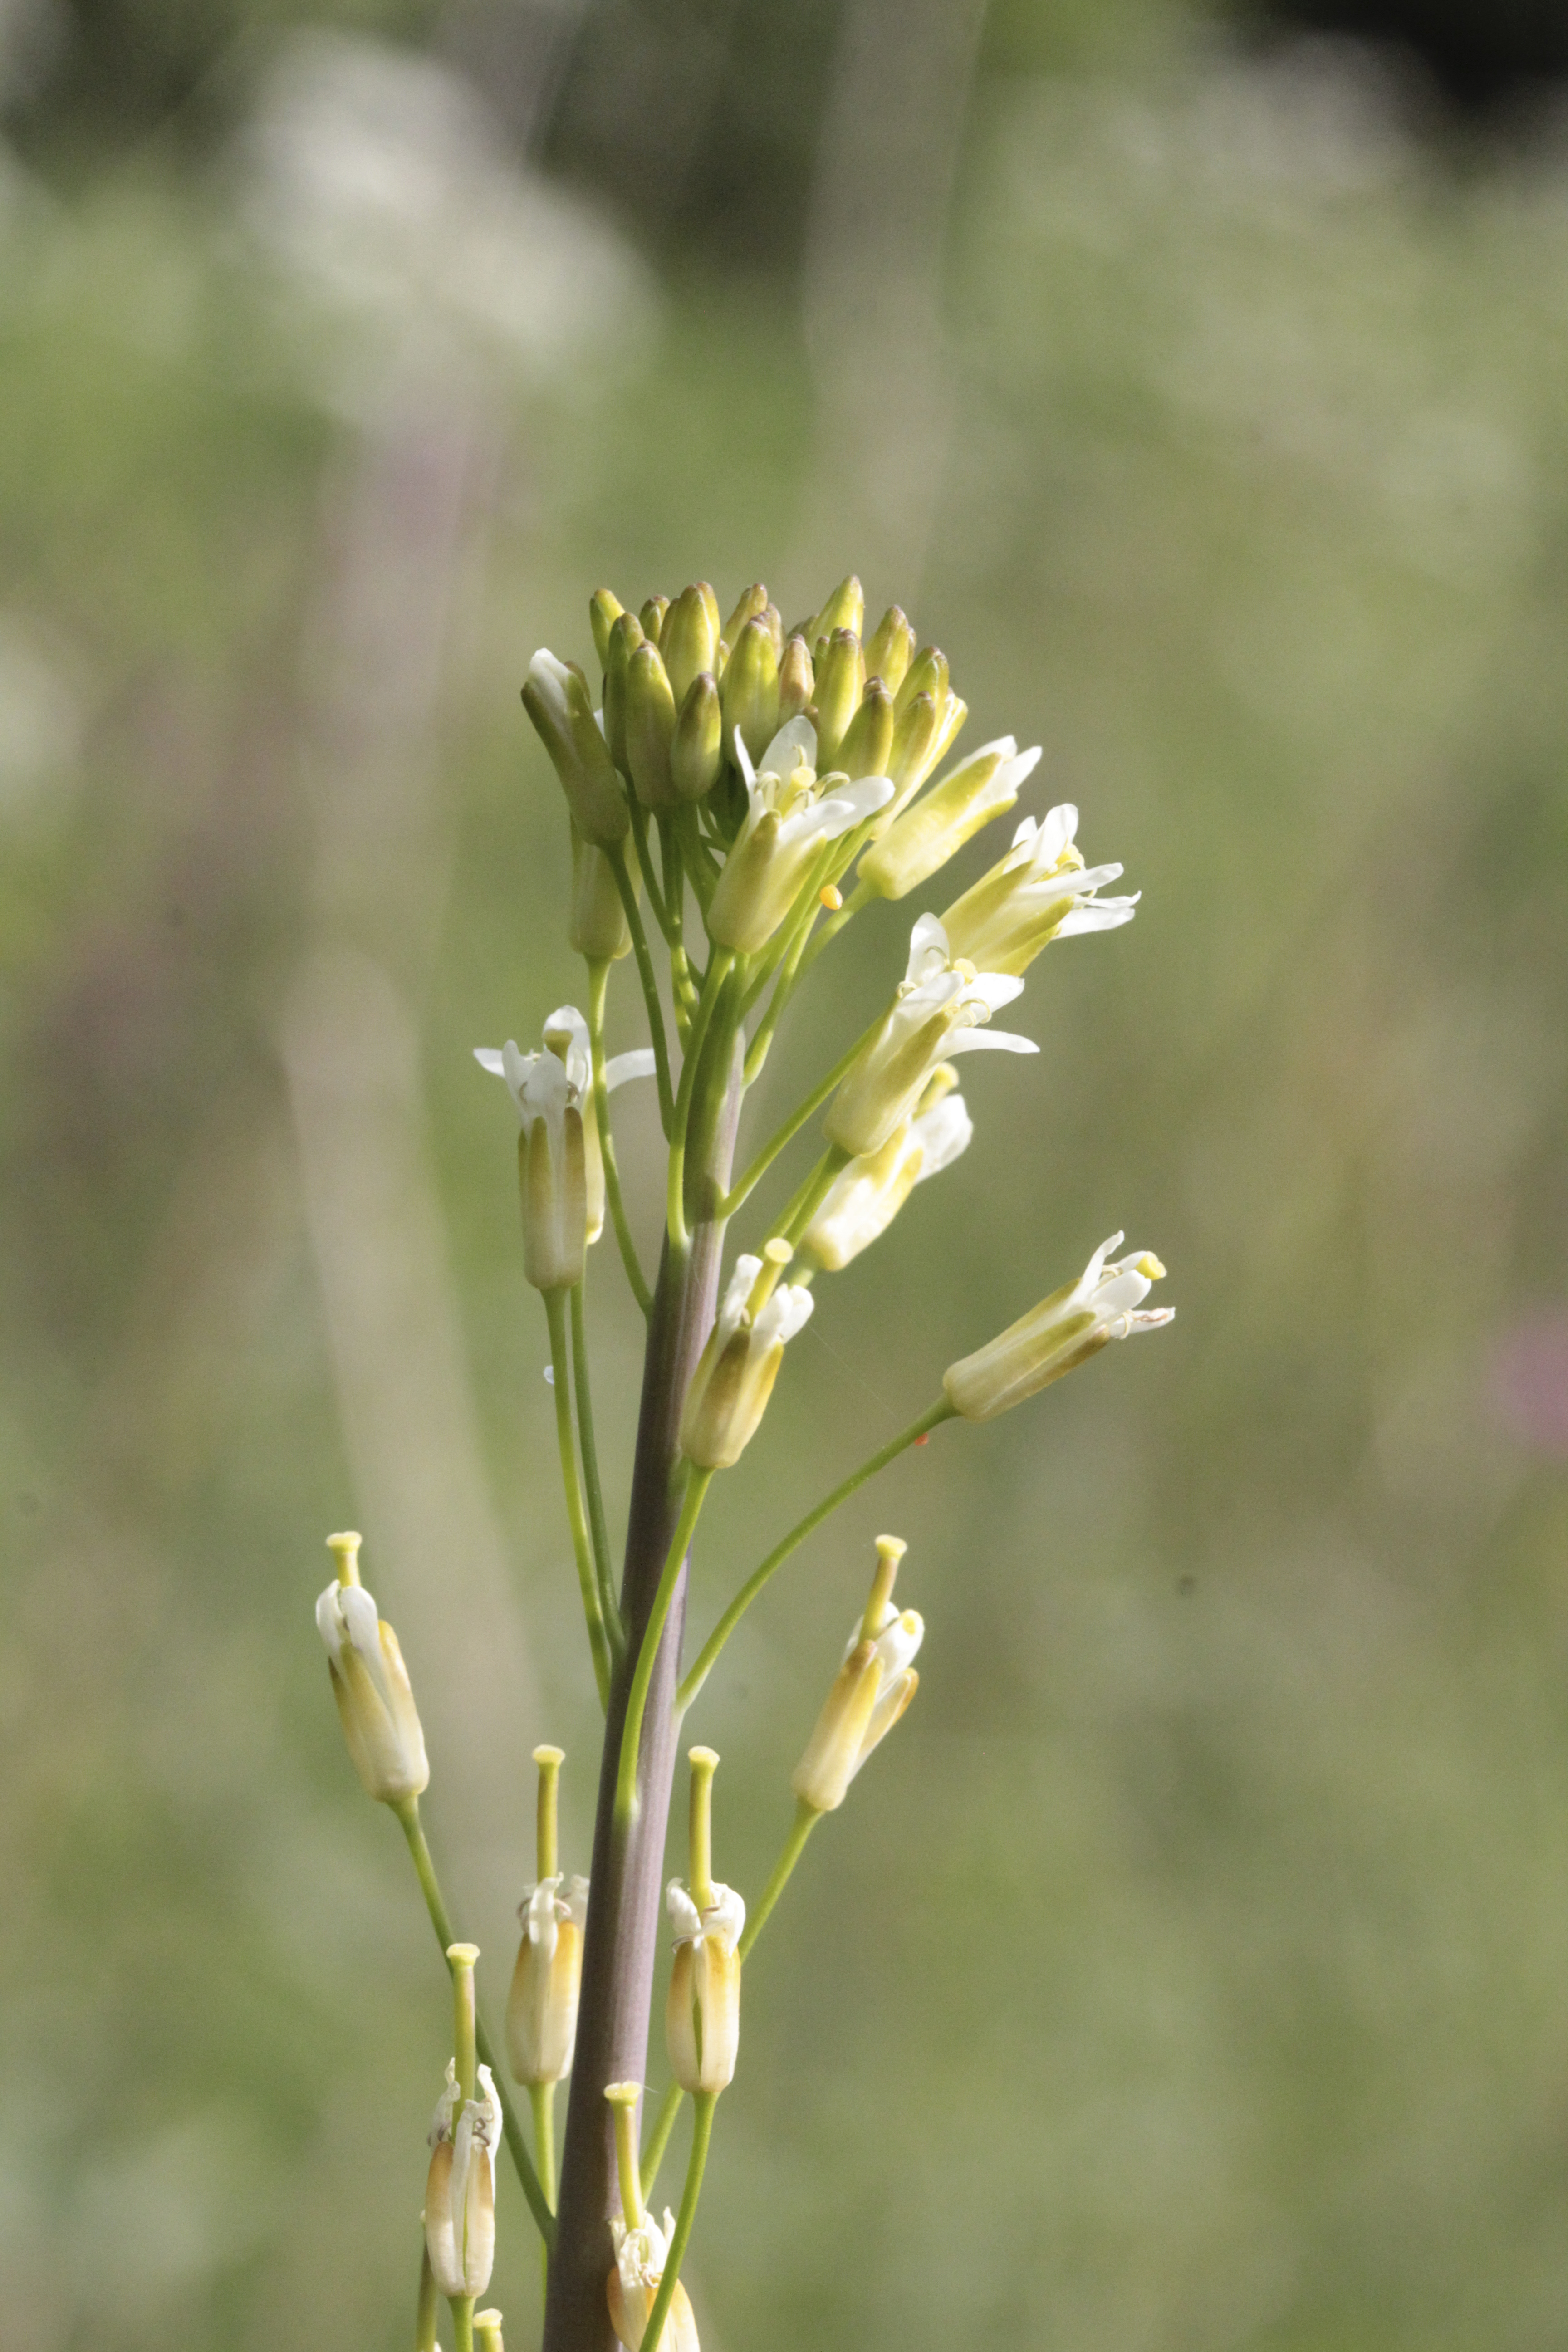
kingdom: Plantae
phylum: Tracheophyta
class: Magnoliopsida
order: Brassicales
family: Brassicaceae
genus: Turritis
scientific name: Turritis glabra
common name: Tower rockcress
